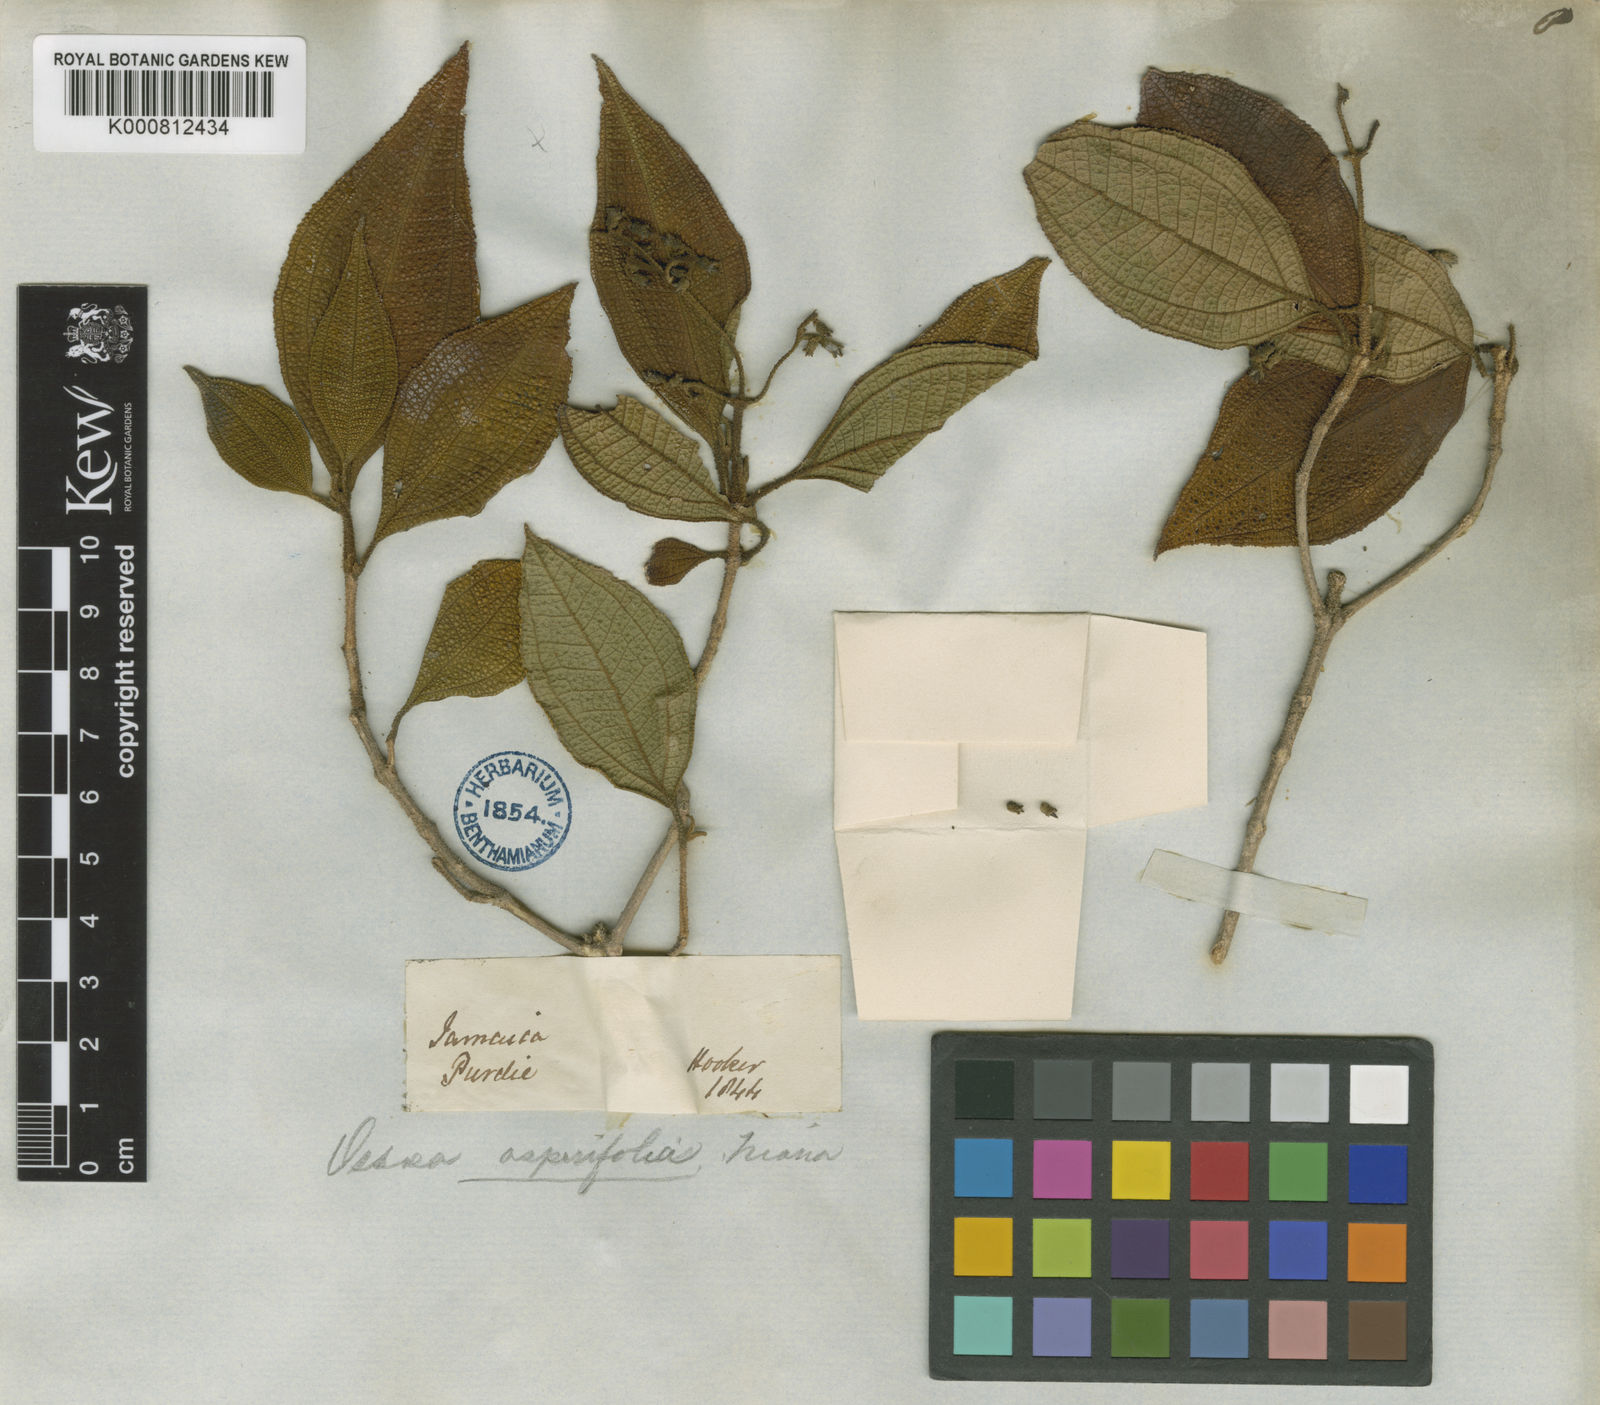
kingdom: Plantae
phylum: Tracheophyta
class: Magnoliopsida
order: Myrtales
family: Melastomataceae
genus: Miconia
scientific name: Miconia asperifolia
